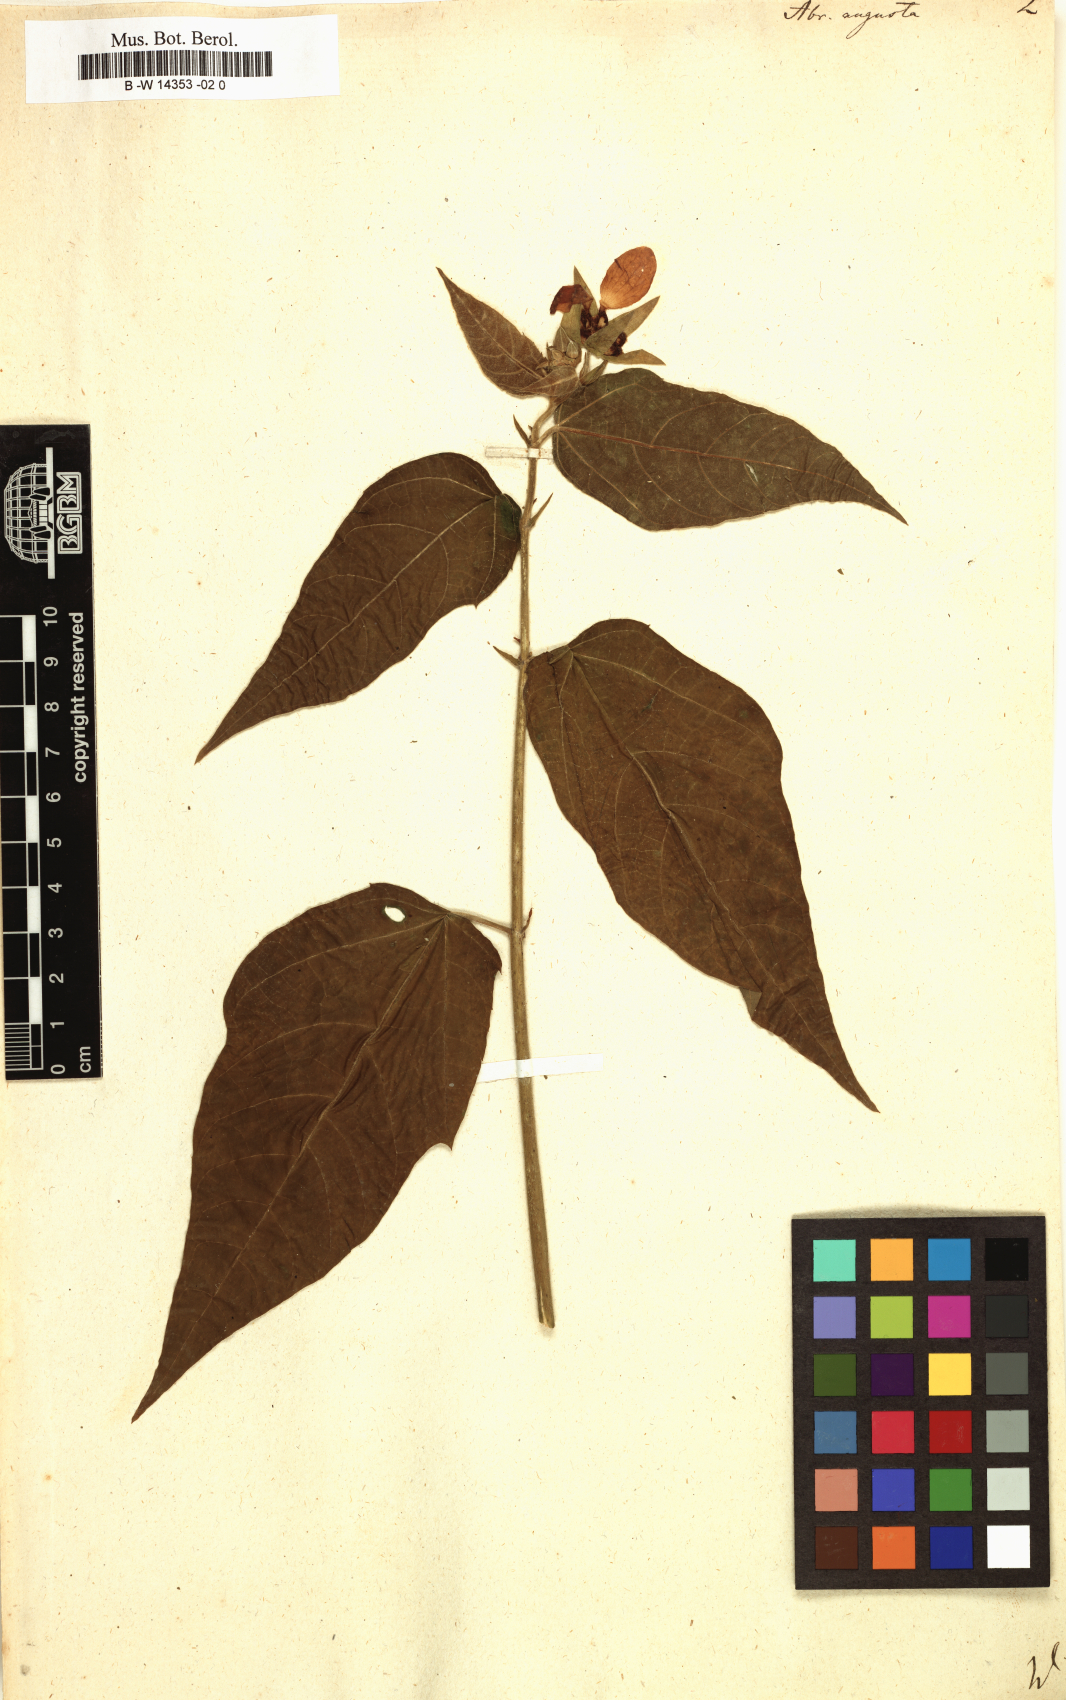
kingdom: Plantae
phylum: Tracheophyta
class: Magnoliopsida
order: Malvales
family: Malvaceae
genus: Abroma
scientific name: Abroma augustum
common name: Devil's-cotton
